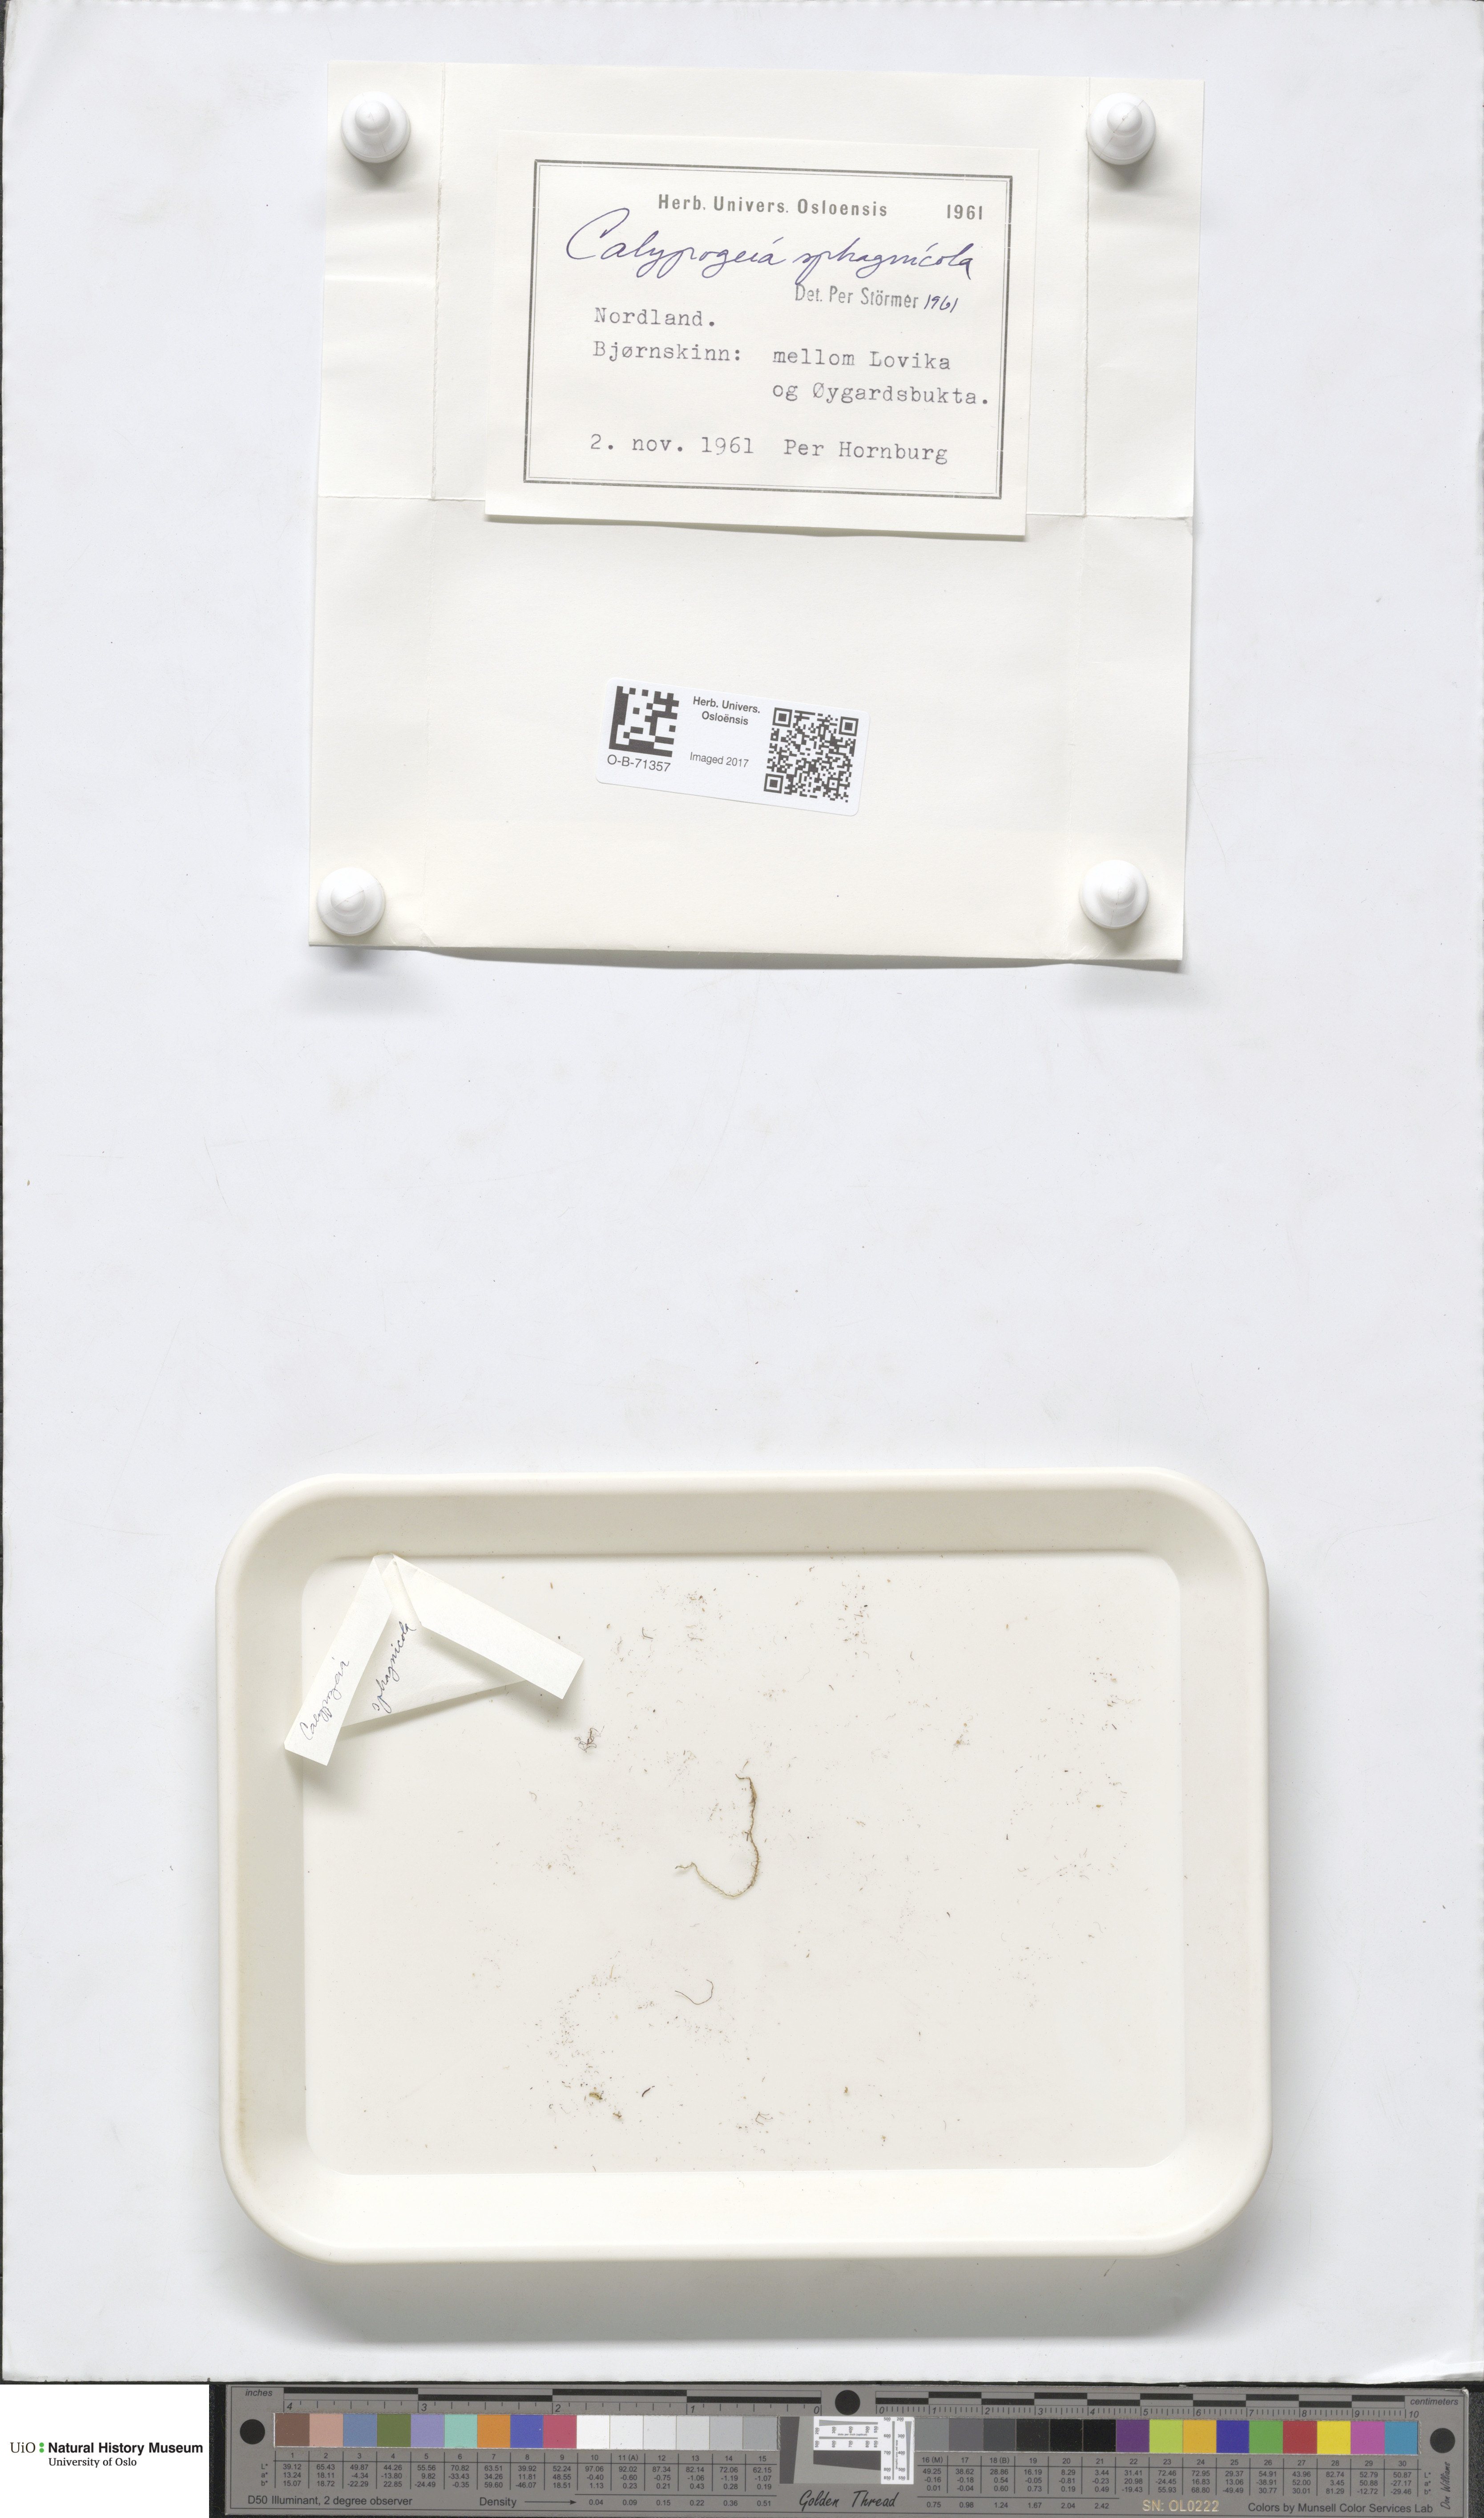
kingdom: Plantae
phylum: Marchantiophyta
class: Jungermanniopsida
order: Jungermanniales
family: Calypogeiaceae
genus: Calypogeia
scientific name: Calypogeia sphagnicola
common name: Bog pouchwort
